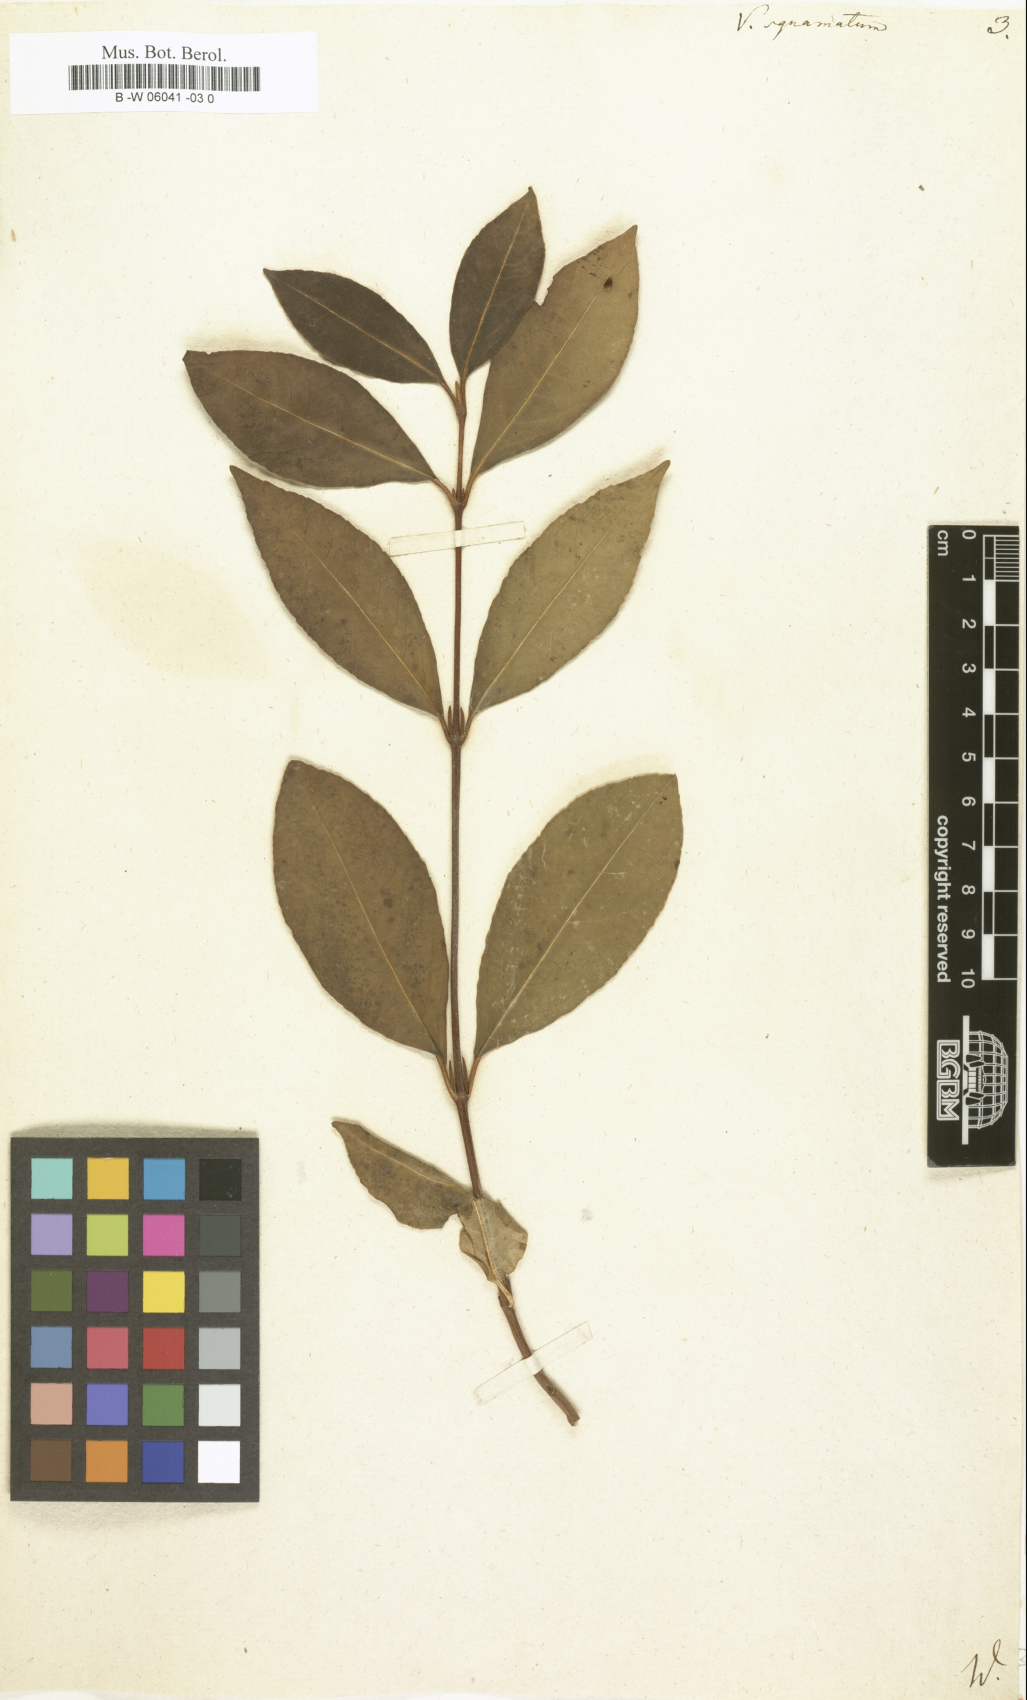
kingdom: Plantae
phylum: Tracheophyta
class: Magnoliopsida
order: Dipsacales
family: Viburnaceae
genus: Viburnum
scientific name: Viburnum cassinoides
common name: Swamp haw
